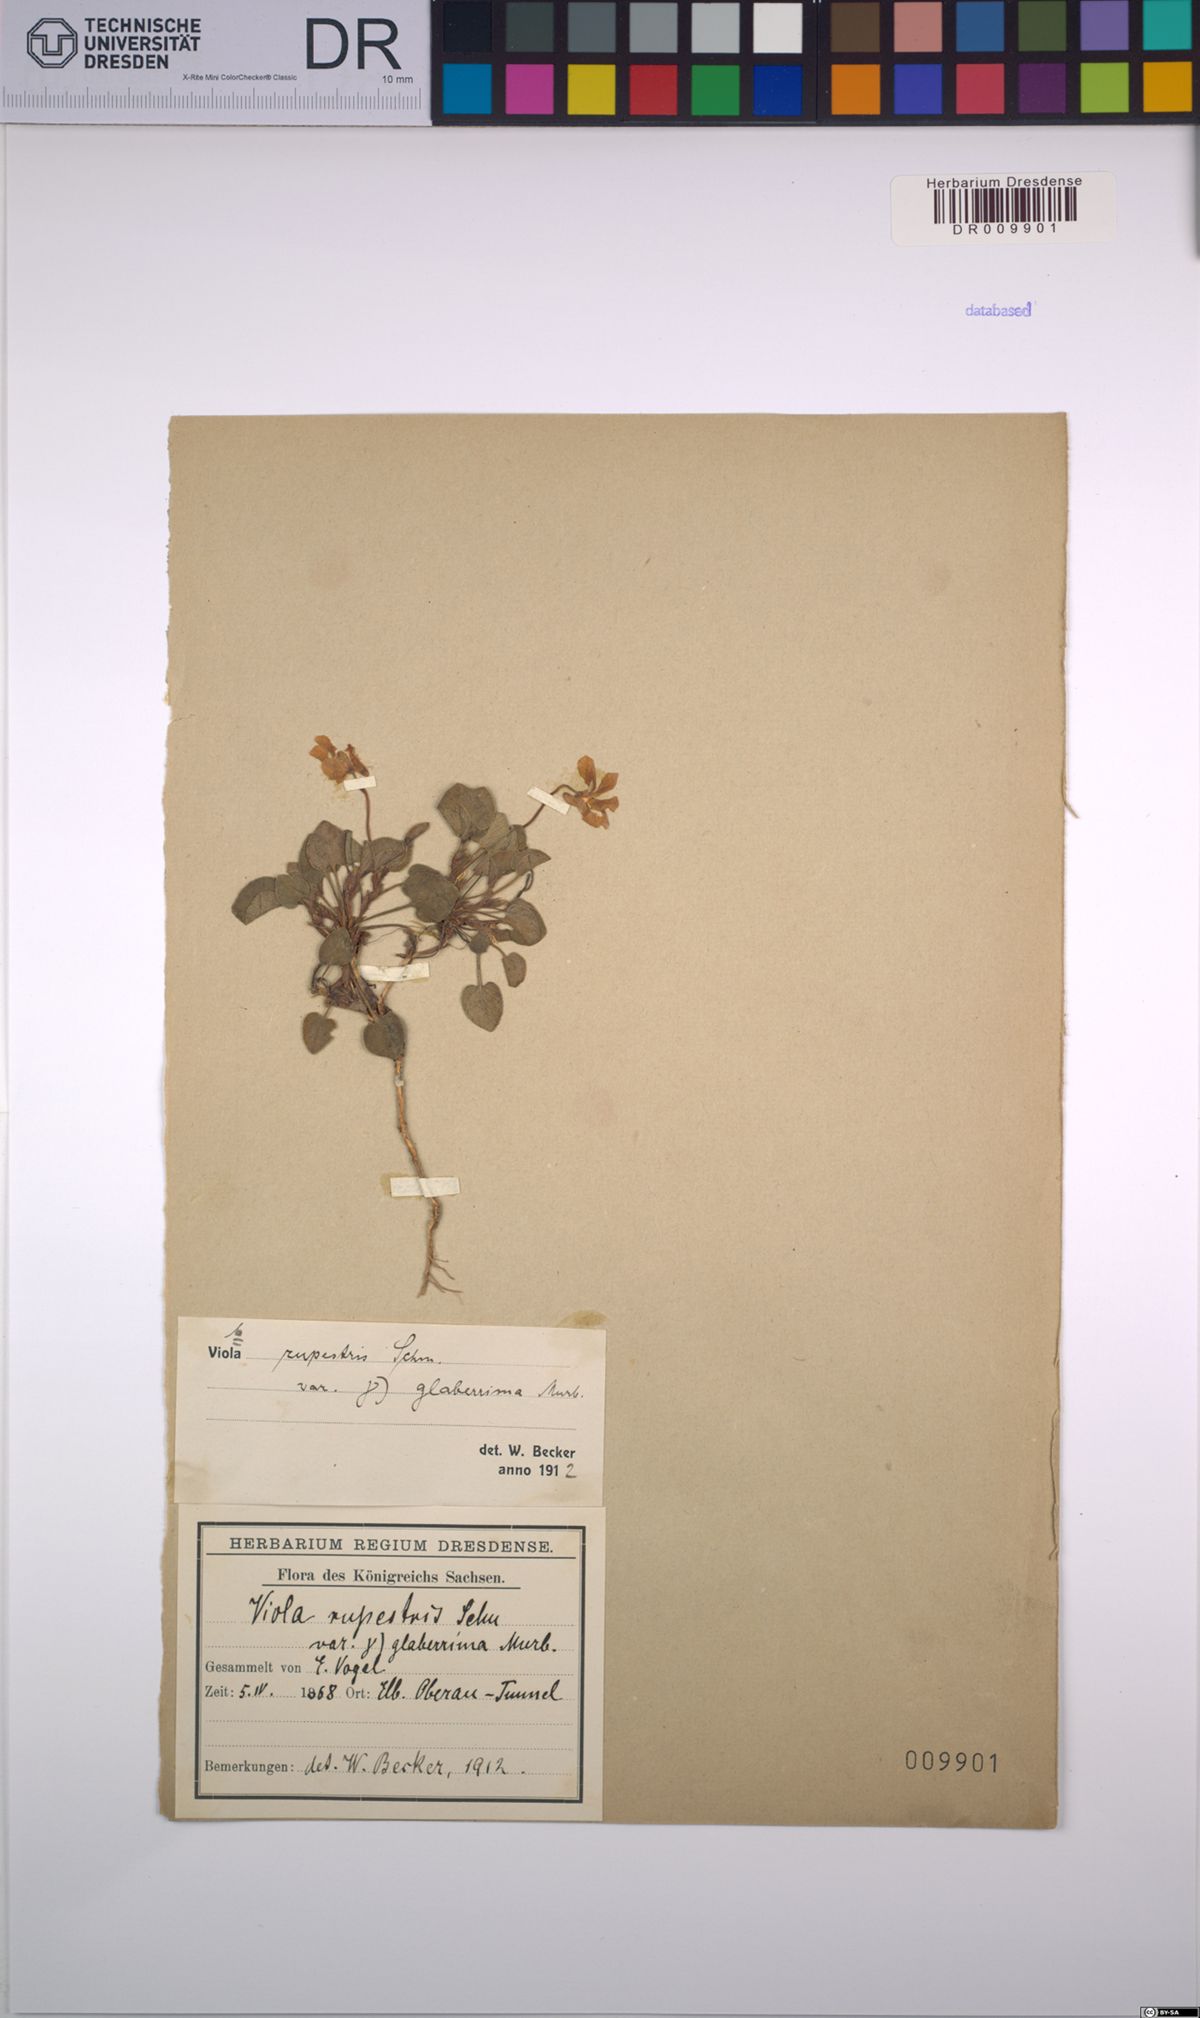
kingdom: Plantae
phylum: Tracheophyta
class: Magnoliopsida
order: Malpighiales
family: Violaceae
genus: Viola
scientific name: Viola rupestris
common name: Teesdale violet
